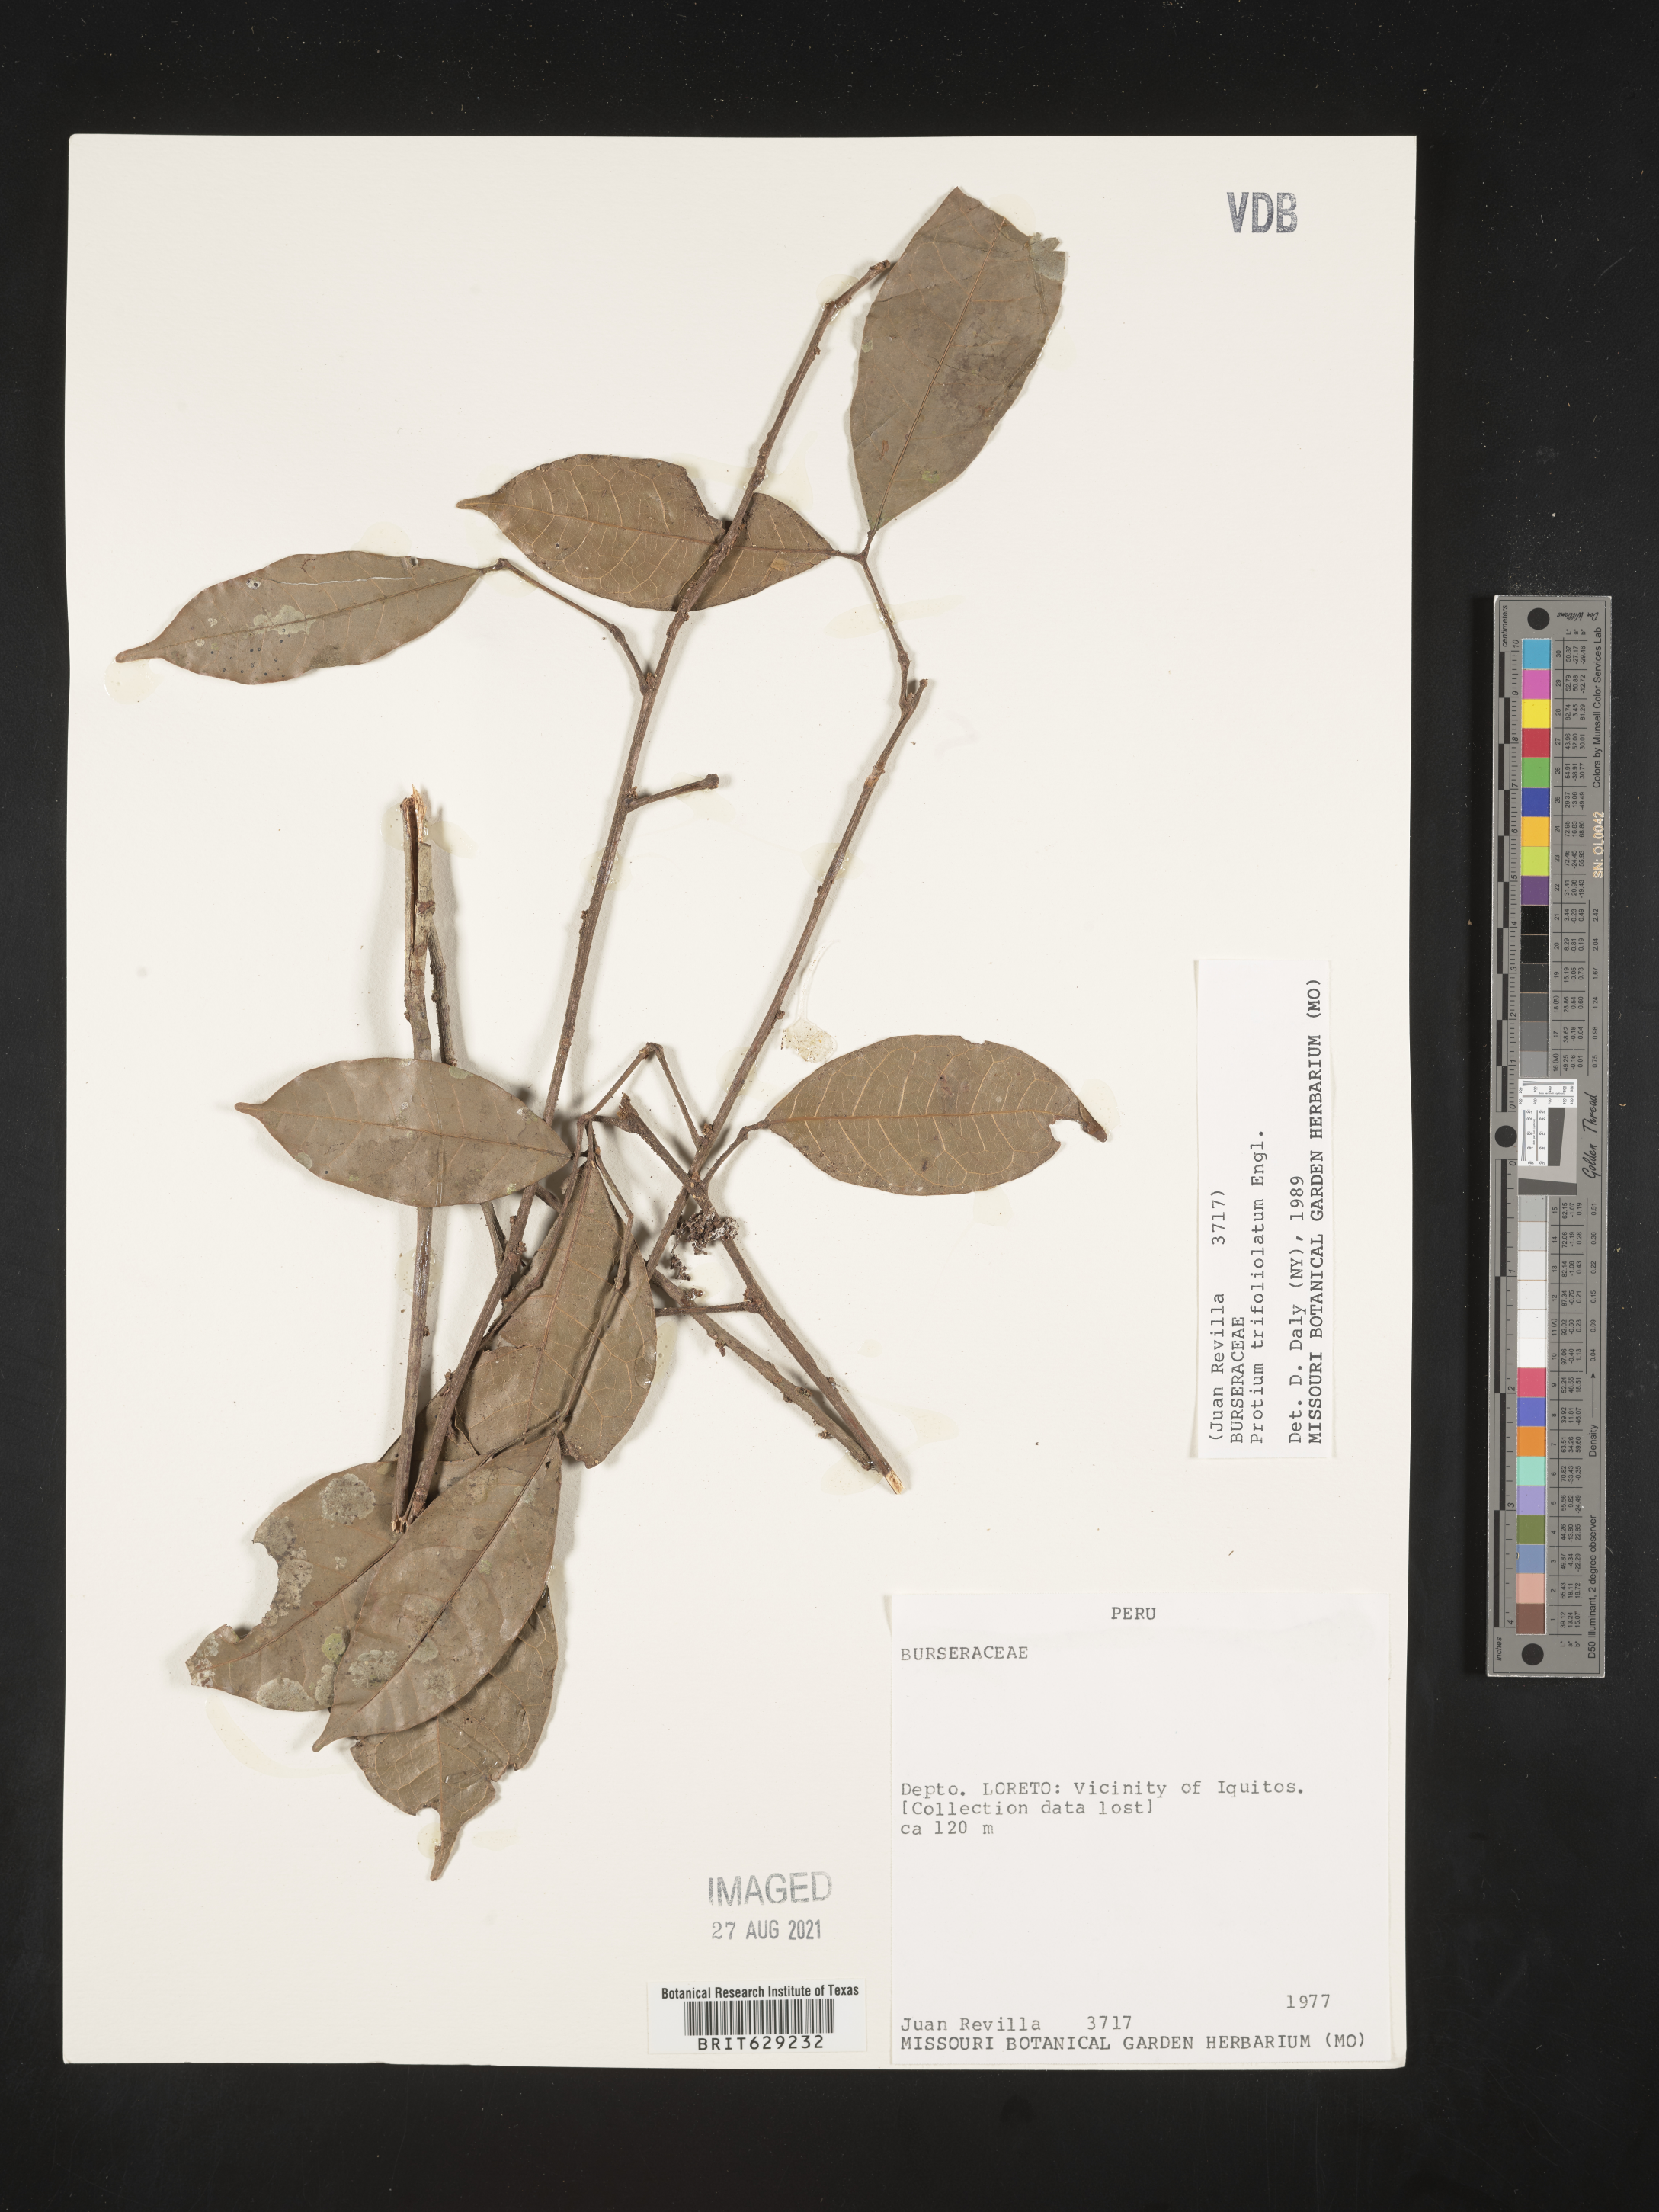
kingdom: Plantae
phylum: Tracheophyta
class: Magnoliopsida
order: Sapindales
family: Burseraceae
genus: Protium
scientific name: Protium trifoliolatum
